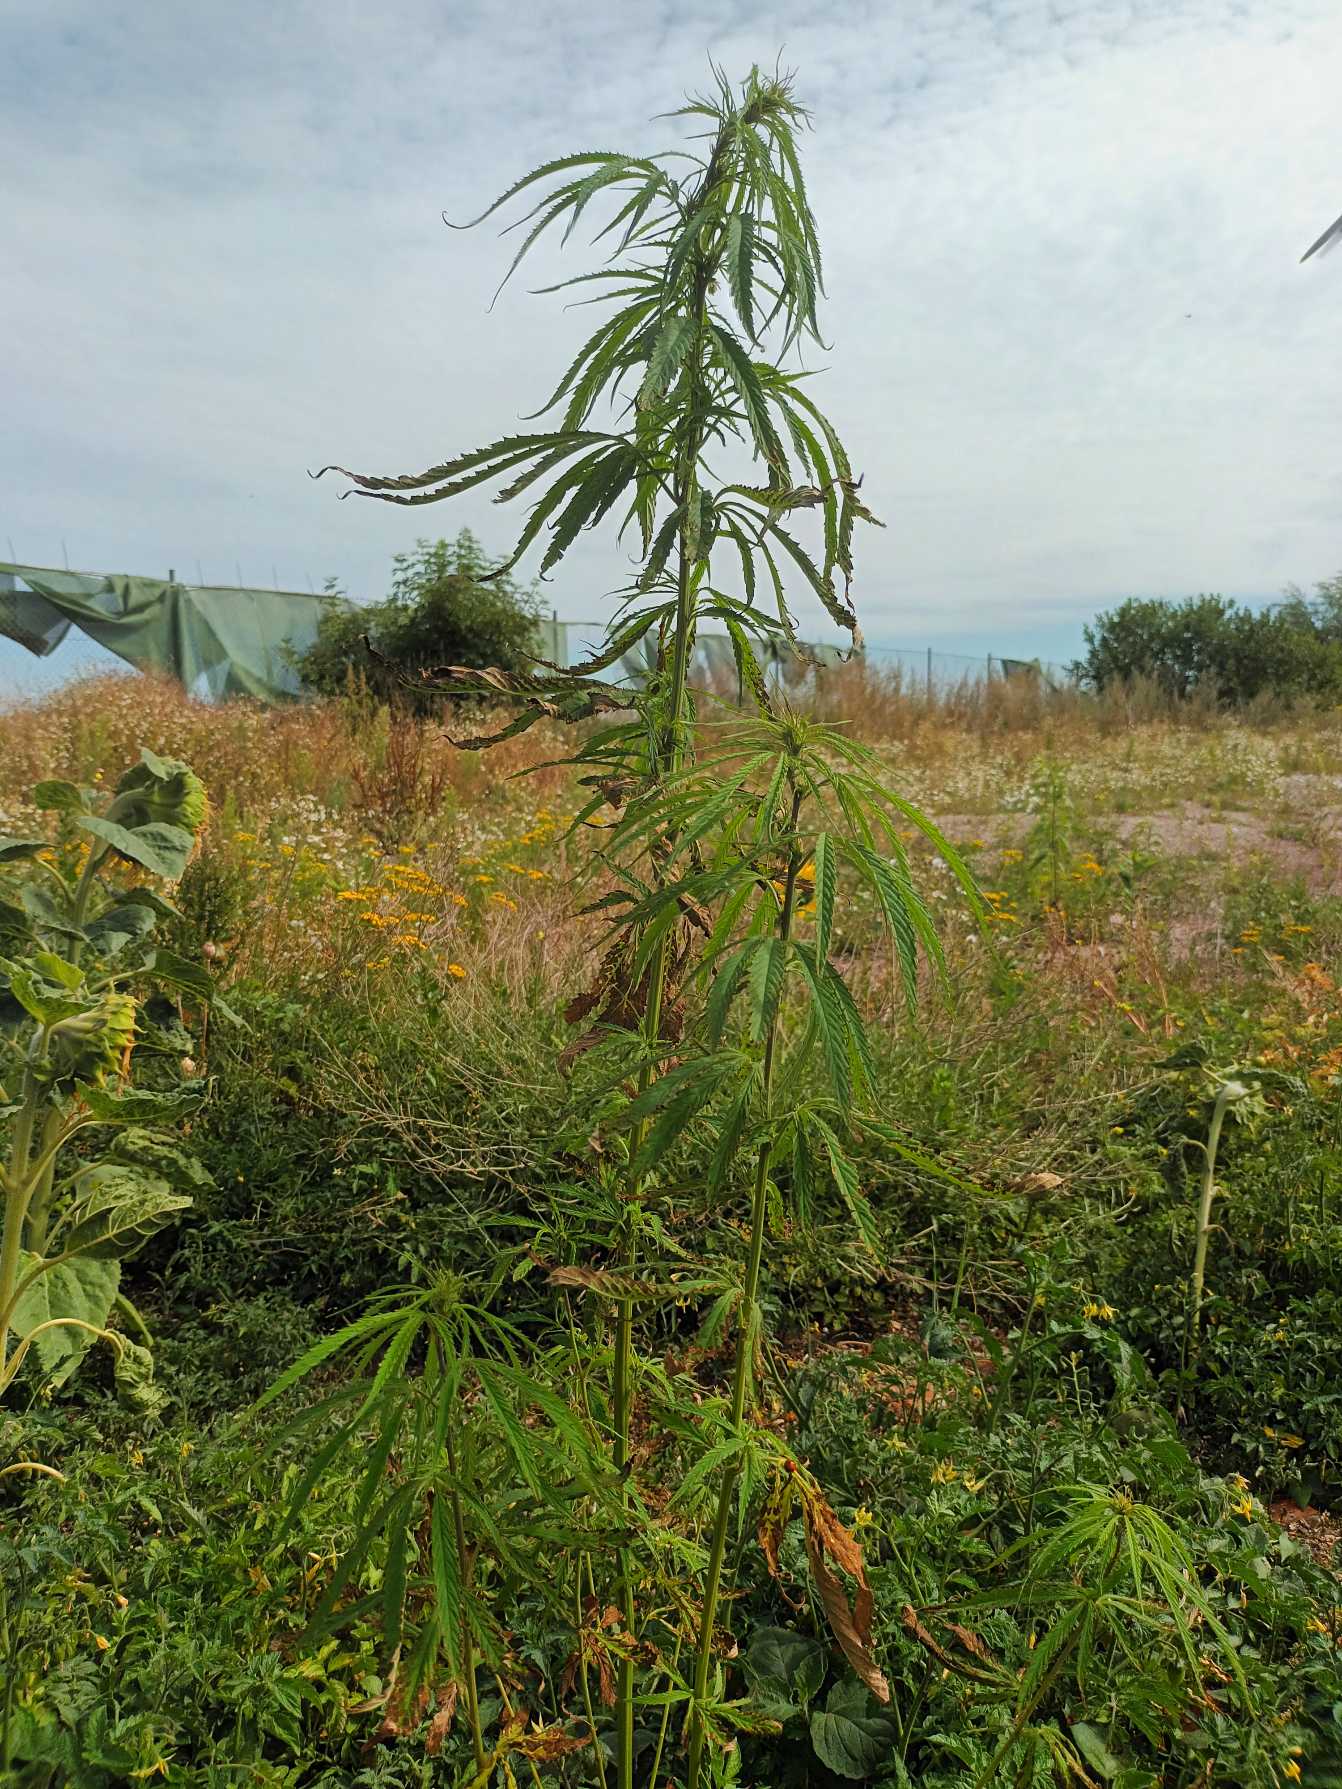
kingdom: Plantae
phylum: Tracheophyta
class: Magnoliopsida
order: Rosales
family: Cannabaceae
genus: Cannabis
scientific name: Cannabis sativa
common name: Hamp
